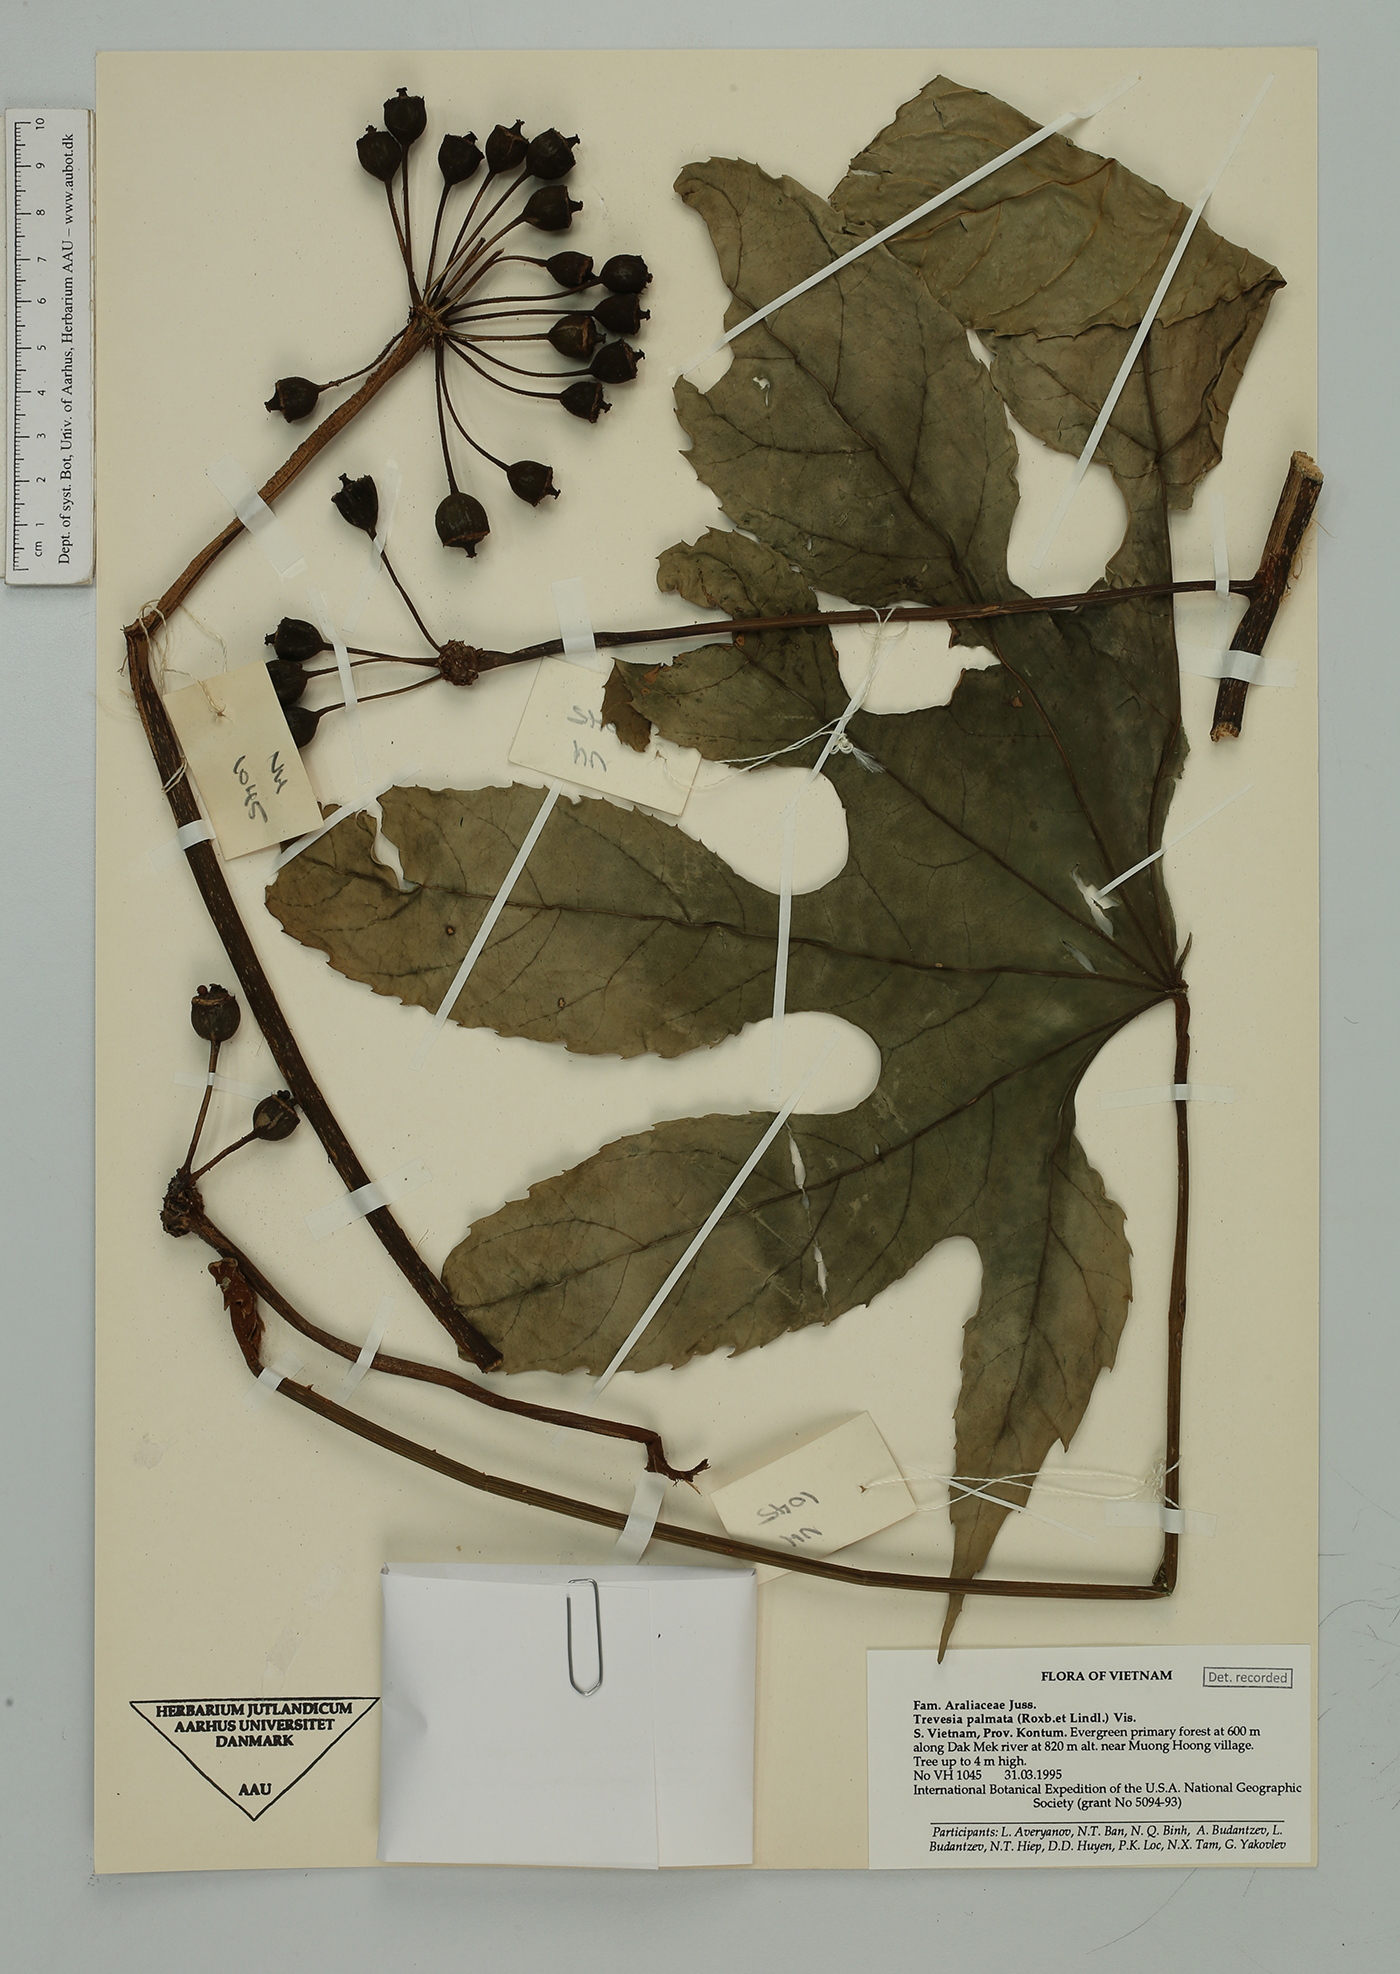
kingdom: Plantae
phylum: Tracheophyta
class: Magnoliopsida
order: Apiales
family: Araliaceae
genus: Trevesia
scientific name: Trevesia palmata
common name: Snowflakeplant
